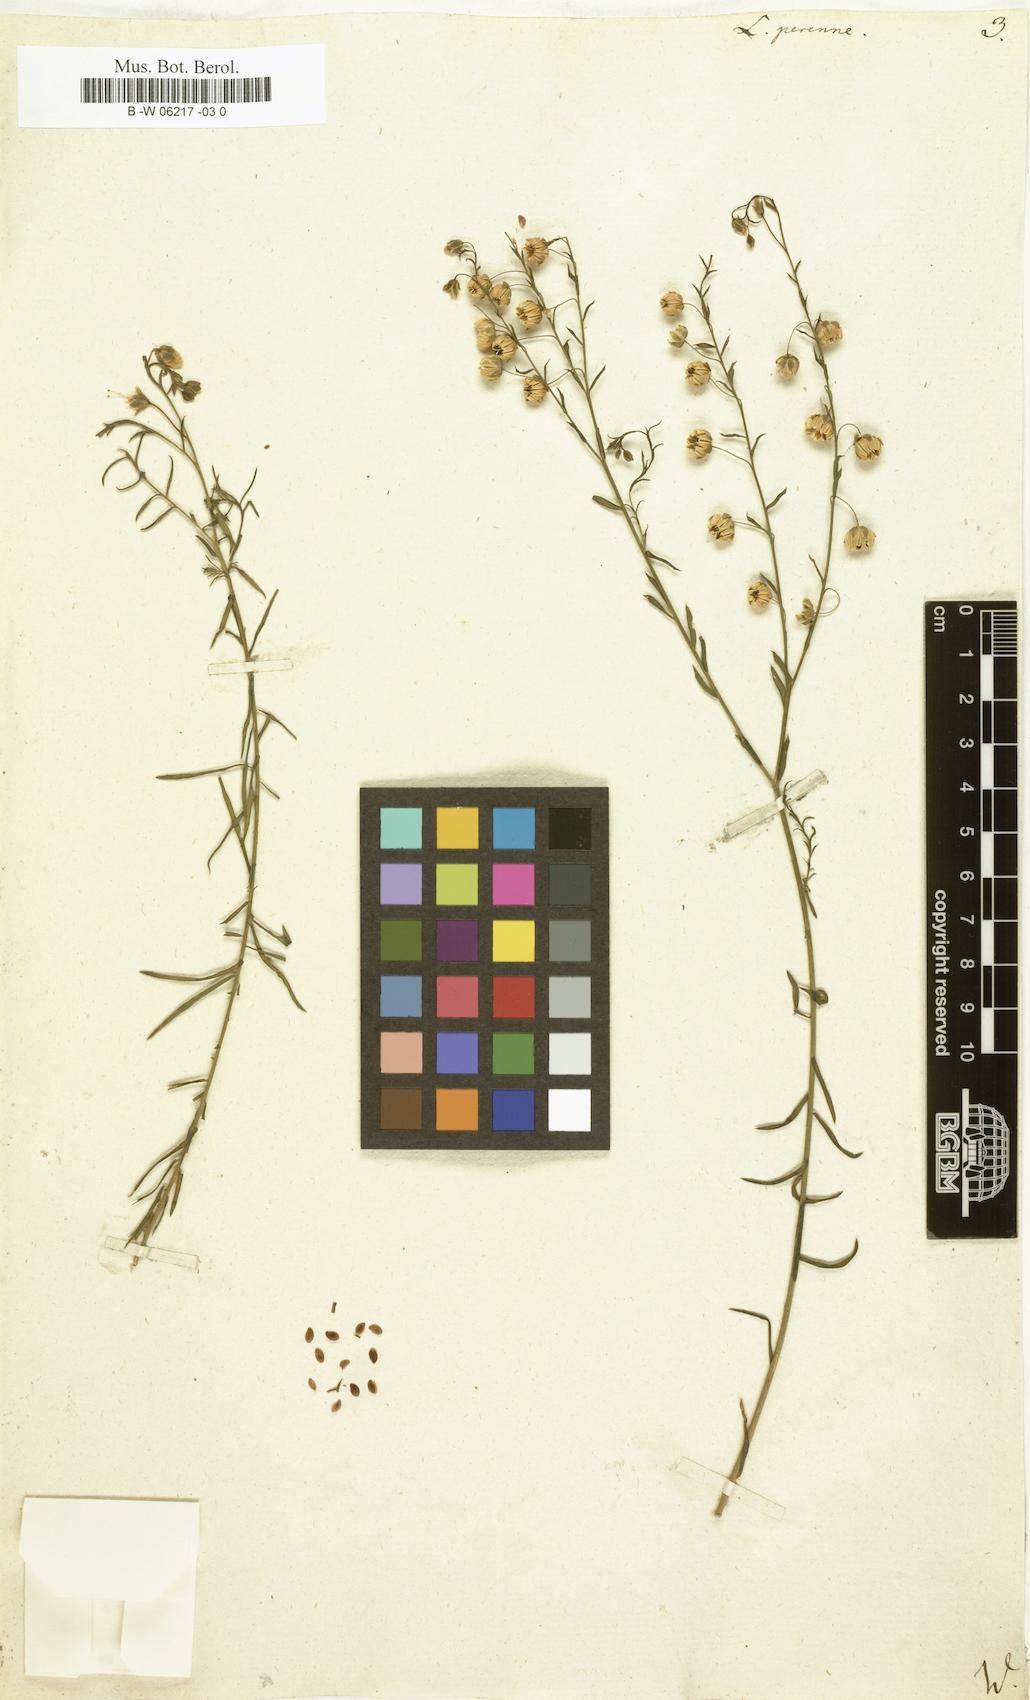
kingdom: Plantae
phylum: Tracheophyta
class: Magnoliopsida
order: Malpighiales
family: Linaceae
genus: Linum
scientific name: Linum perenne
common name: Blue flax
